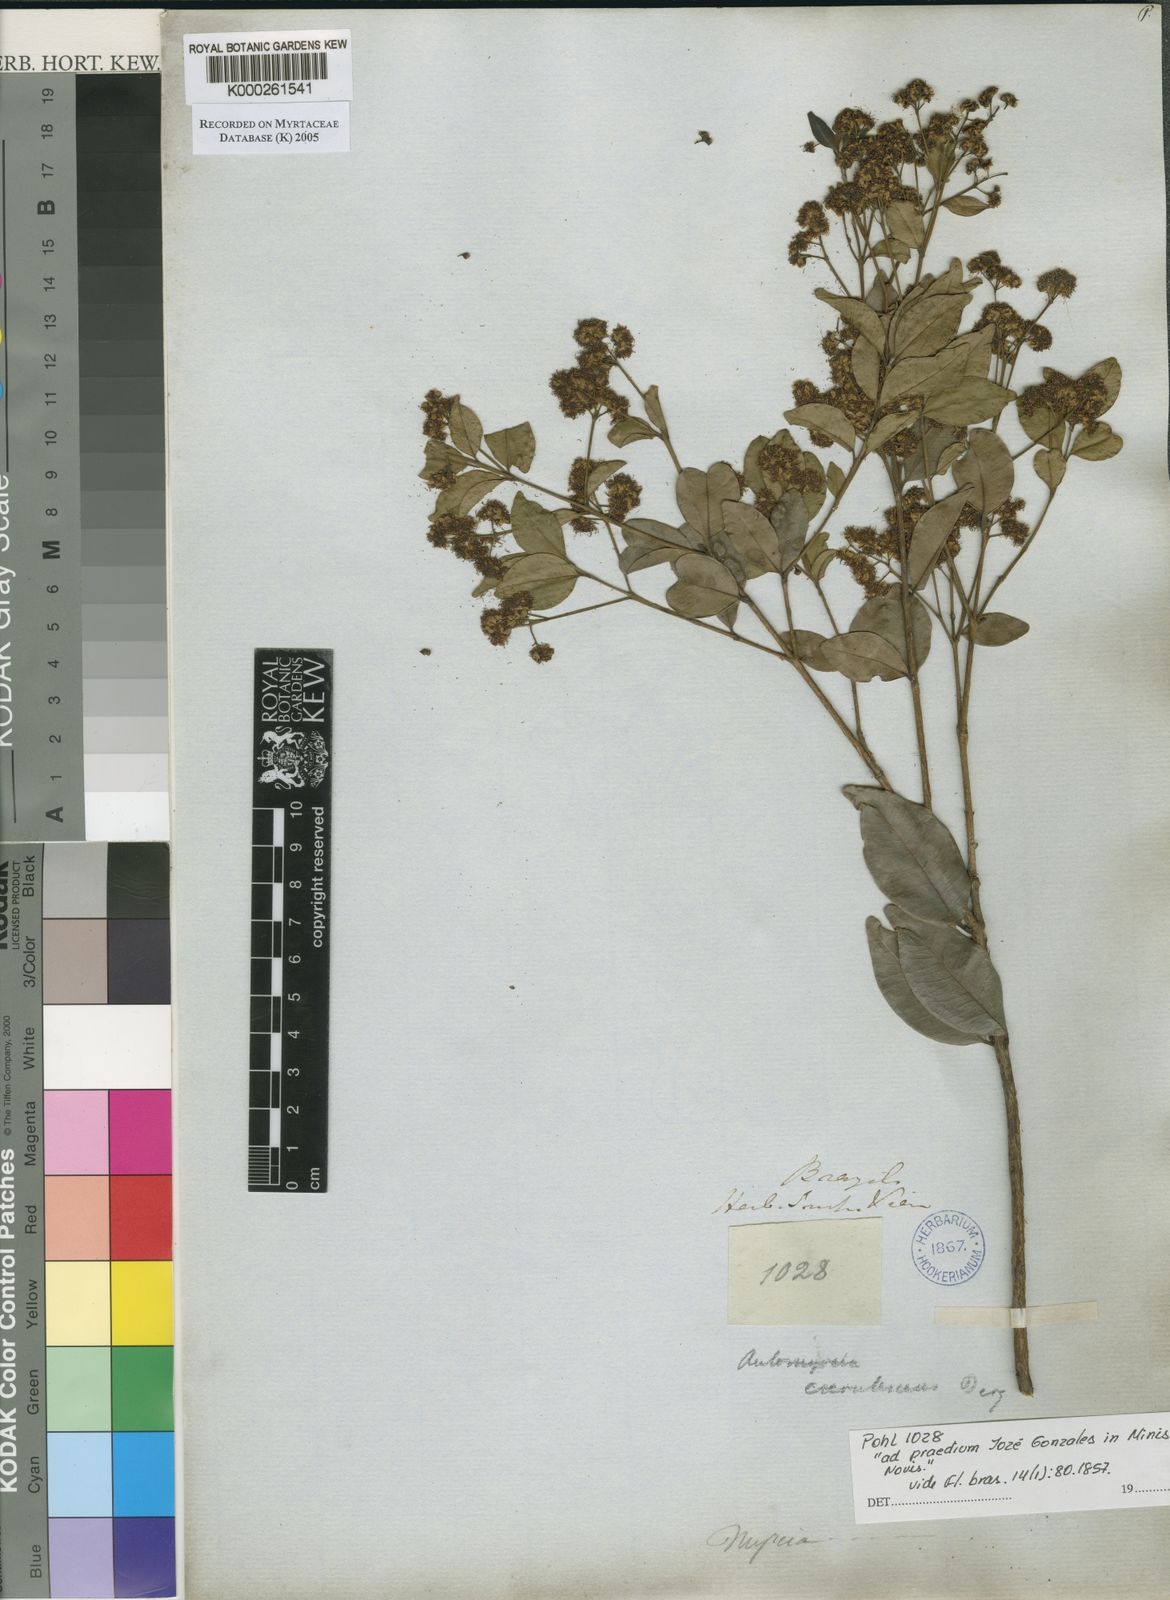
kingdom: Plantae
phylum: Tracheophyta
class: Magnoliopsida
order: Myrtales
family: Myrtaceae
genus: Myrcia
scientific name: Myrcia multiflora
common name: Pedra hume
